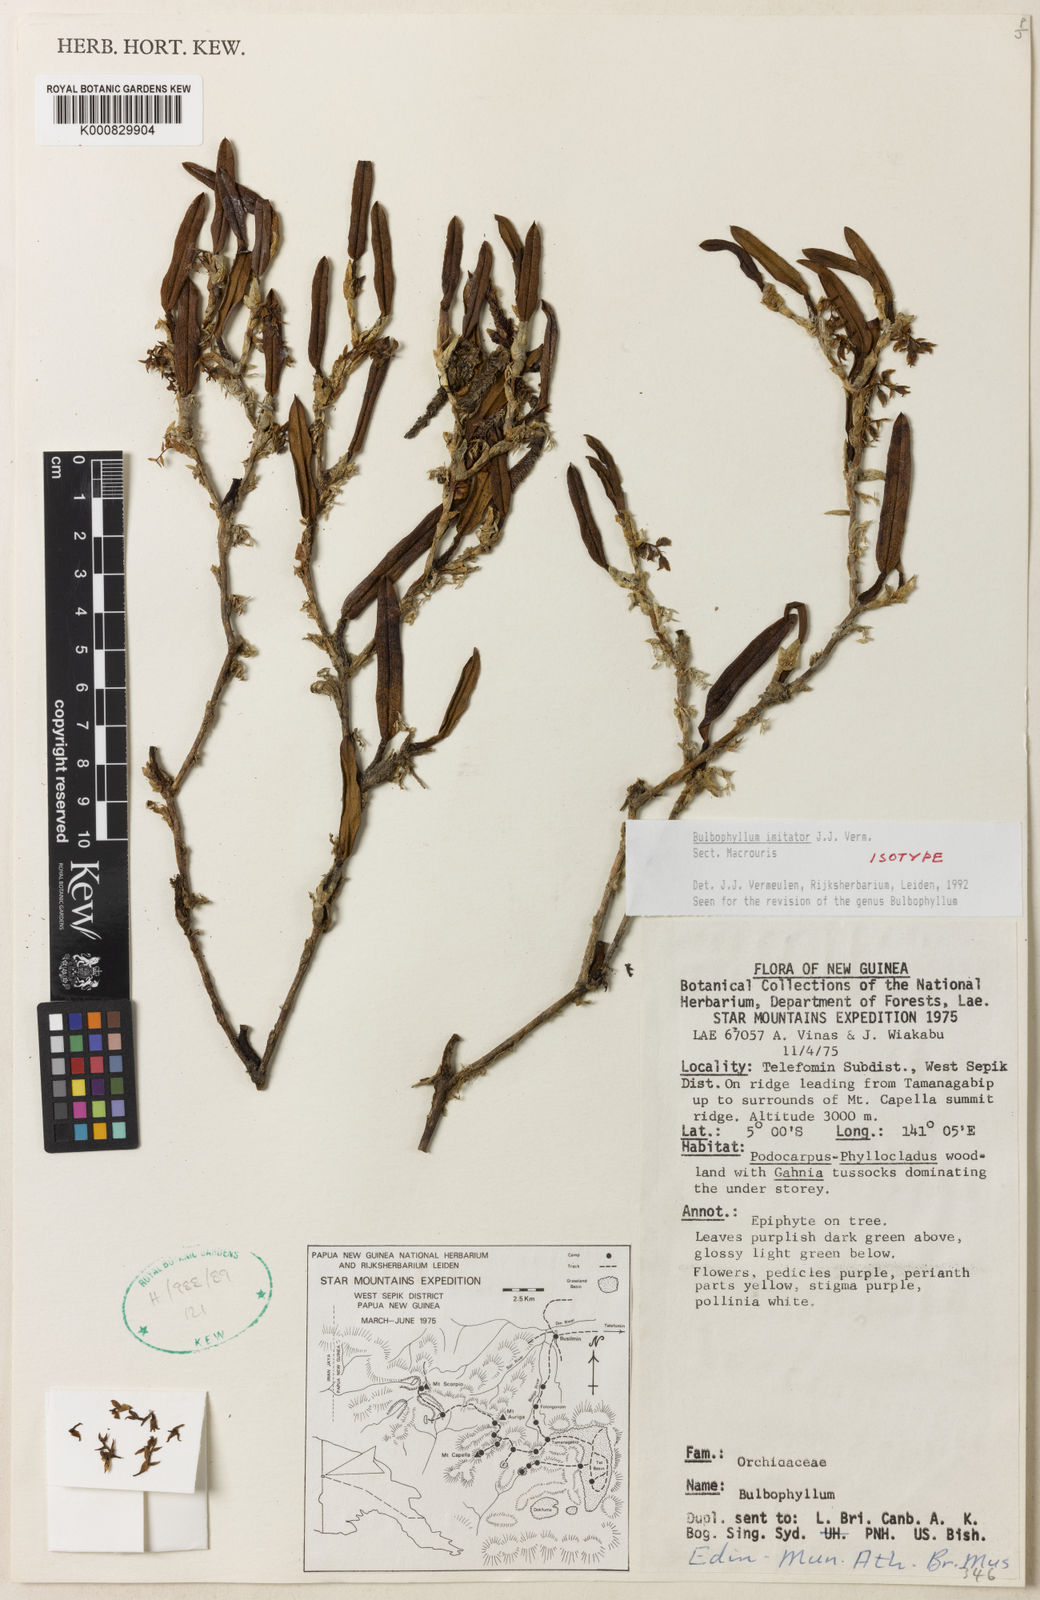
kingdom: Plantae
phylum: Tracheophyta
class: Liliopsida
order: Asparagales
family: Orchidaceae
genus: Bulbophyllum
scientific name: Bulbophyllum
